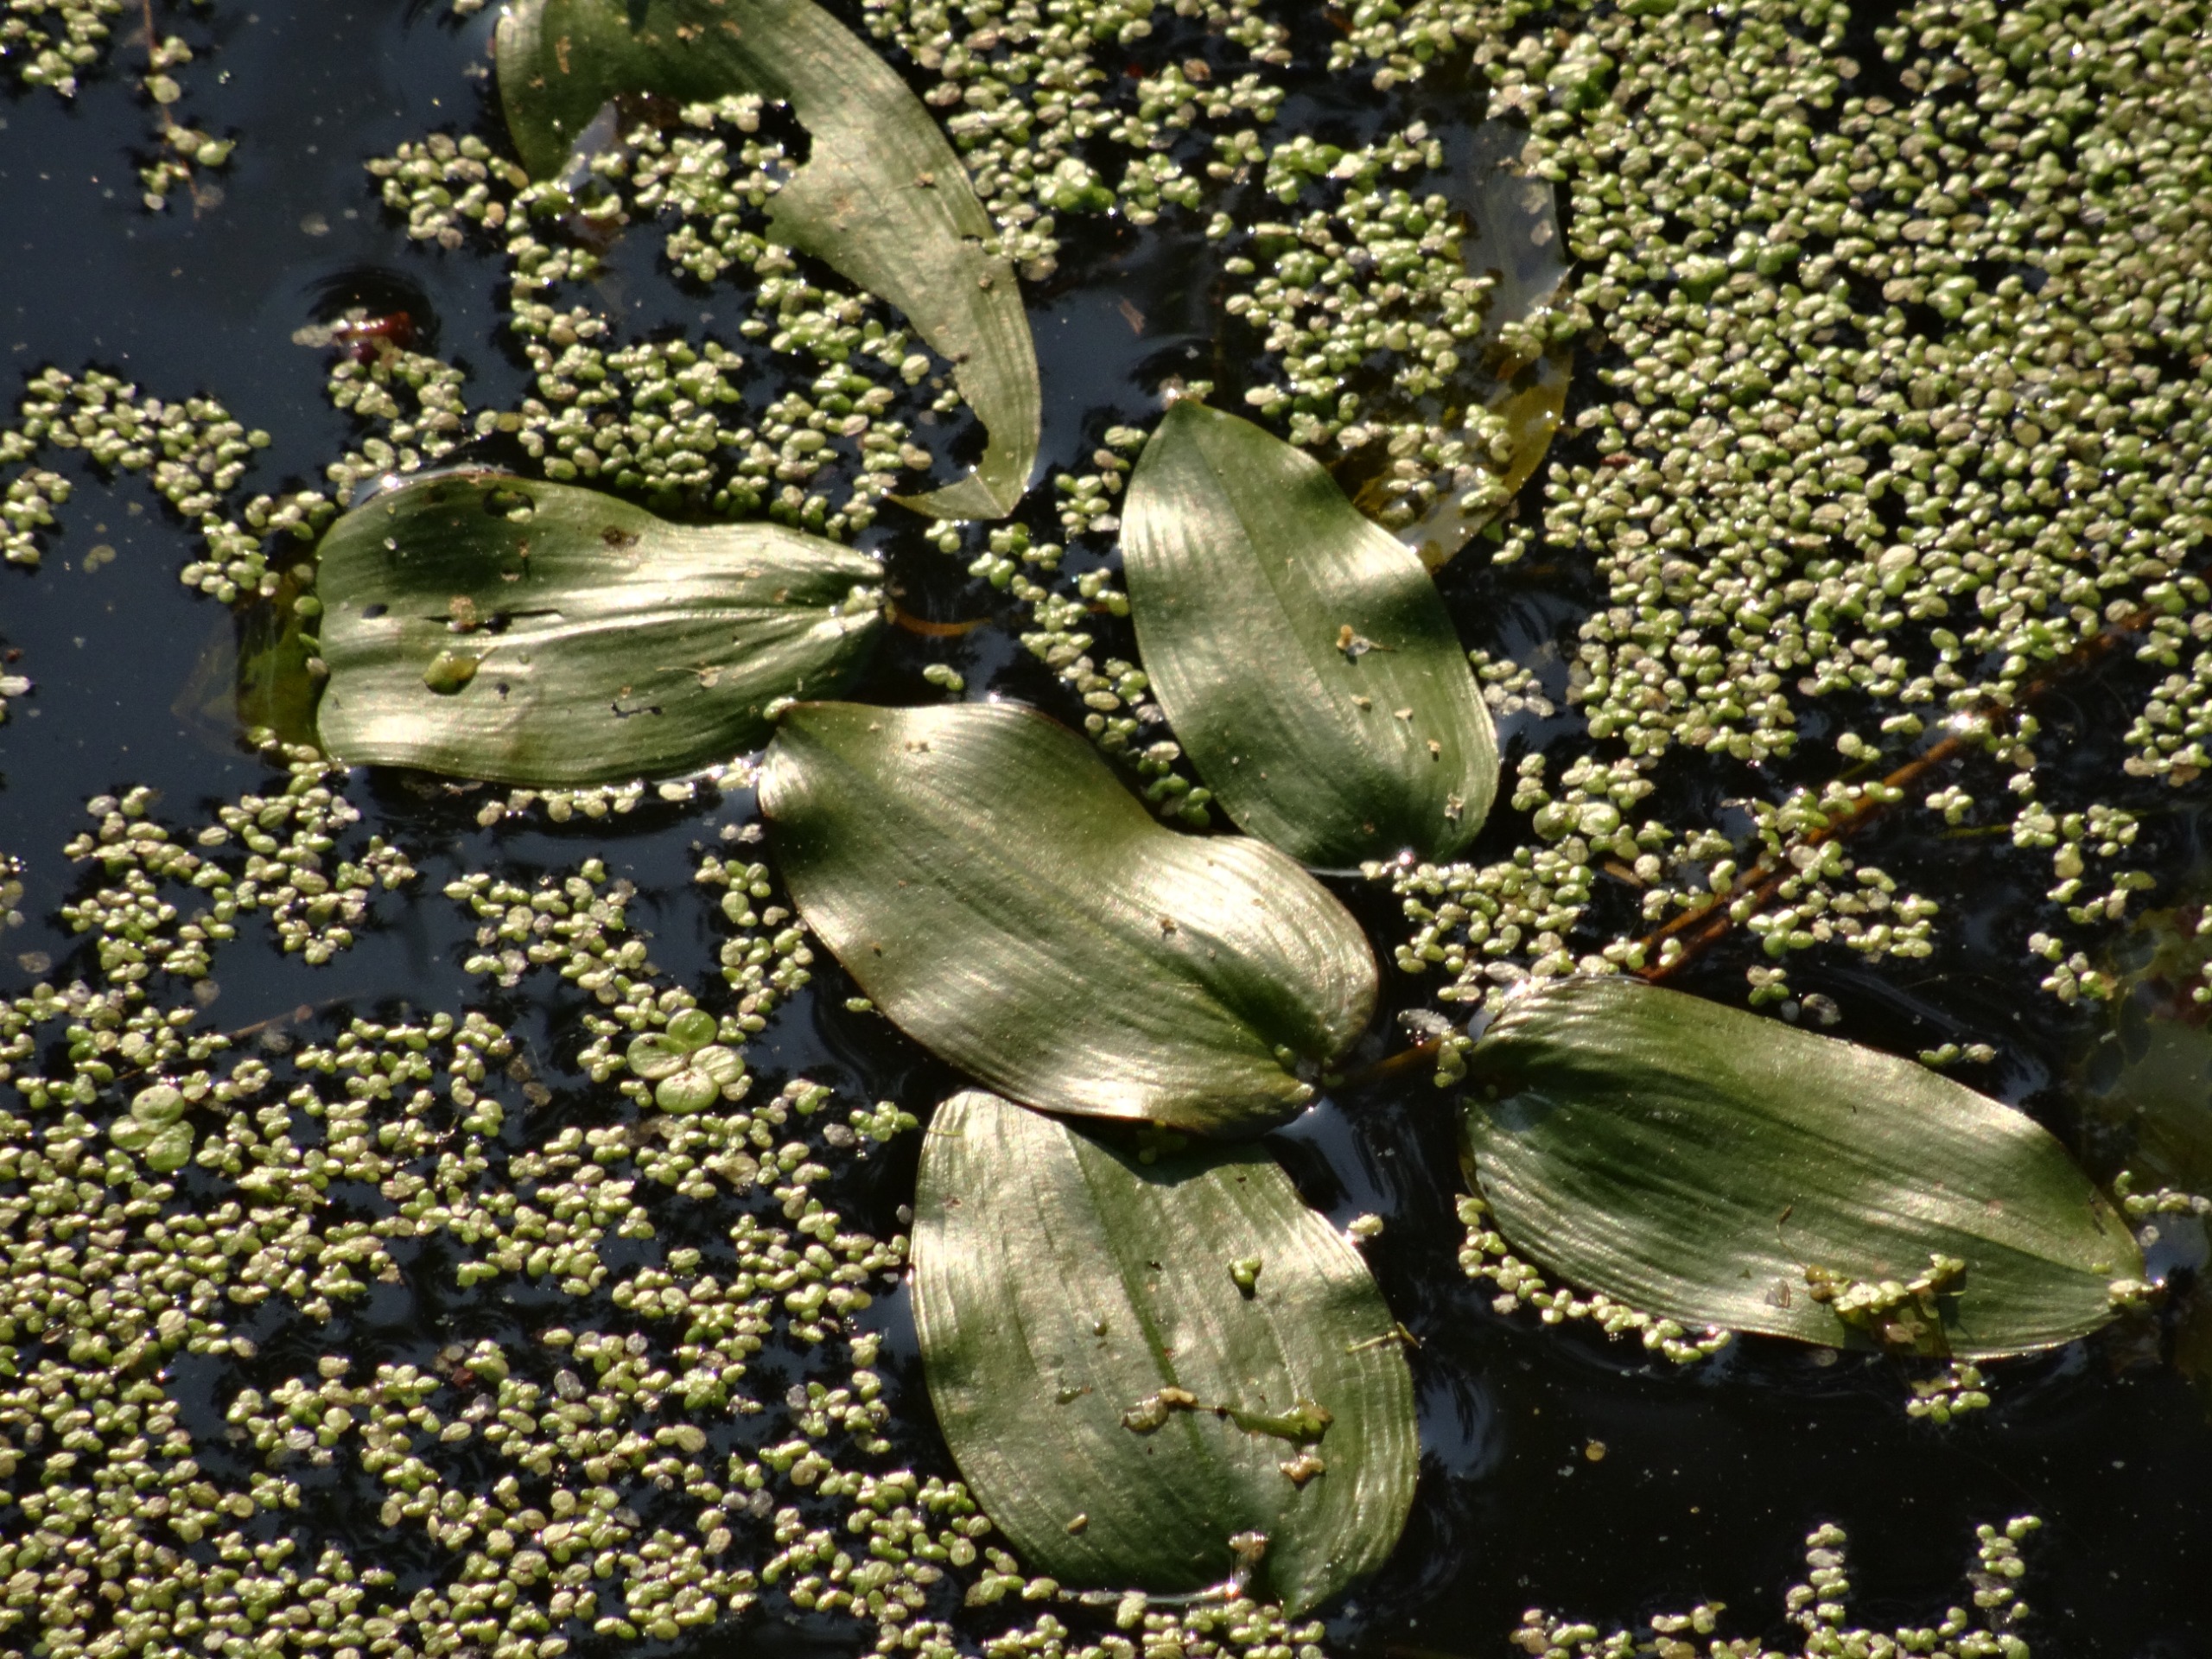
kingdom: Plantae
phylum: Tracheophyta
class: Liliopsida
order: Alismatales
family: Potamogetonaceae
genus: Potamogeton
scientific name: Potamogeton natans
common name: Svømmende vandaks
